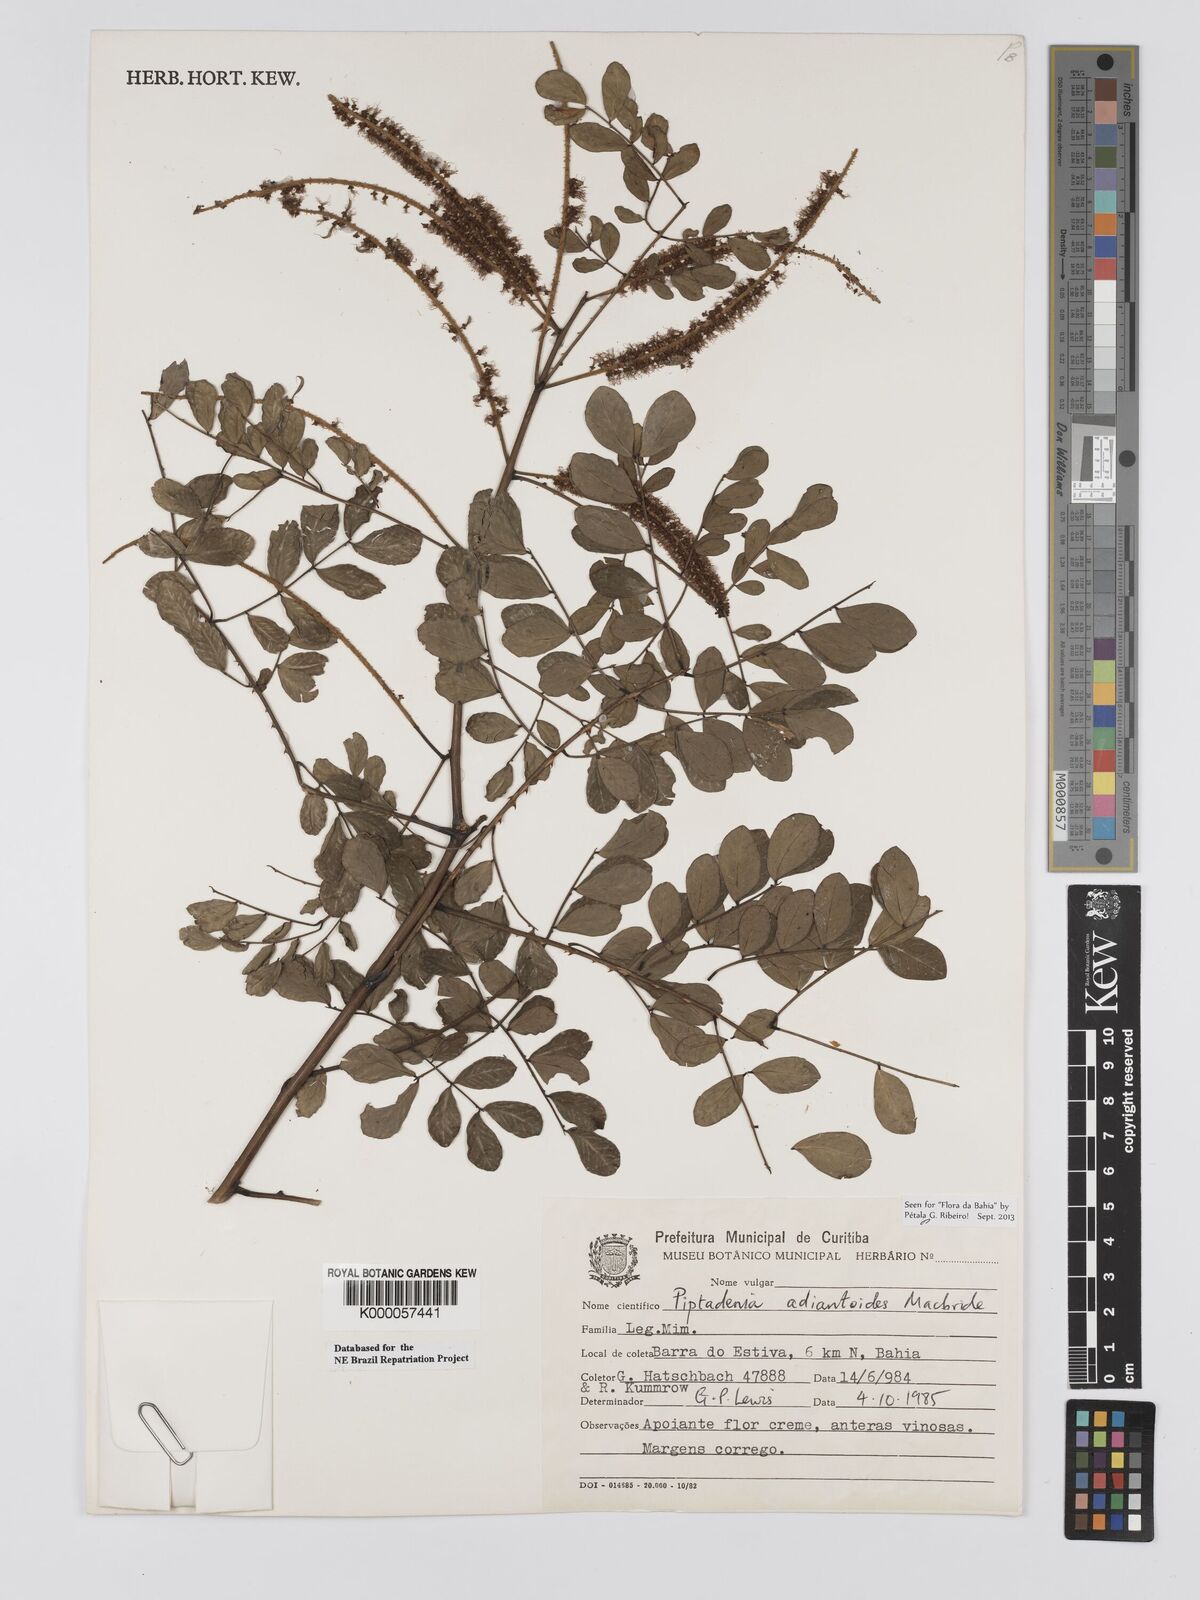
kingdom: Plantae
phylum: Tracheophyta
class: Magnoliopsida
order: Fabales
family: Fabaceae
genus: Piptadenia
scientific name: Piptadenia adiantoides
